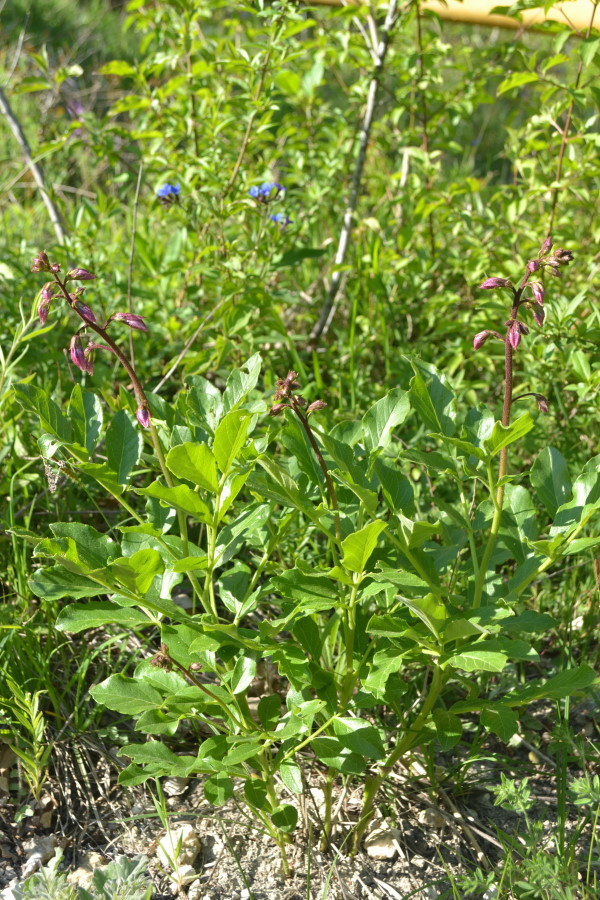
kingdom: Plantae
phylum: Tracheophyta
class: Magnoliopsida
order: Sapindales
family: Rutaceae
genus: Dictamnus
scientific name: Dictamnus
